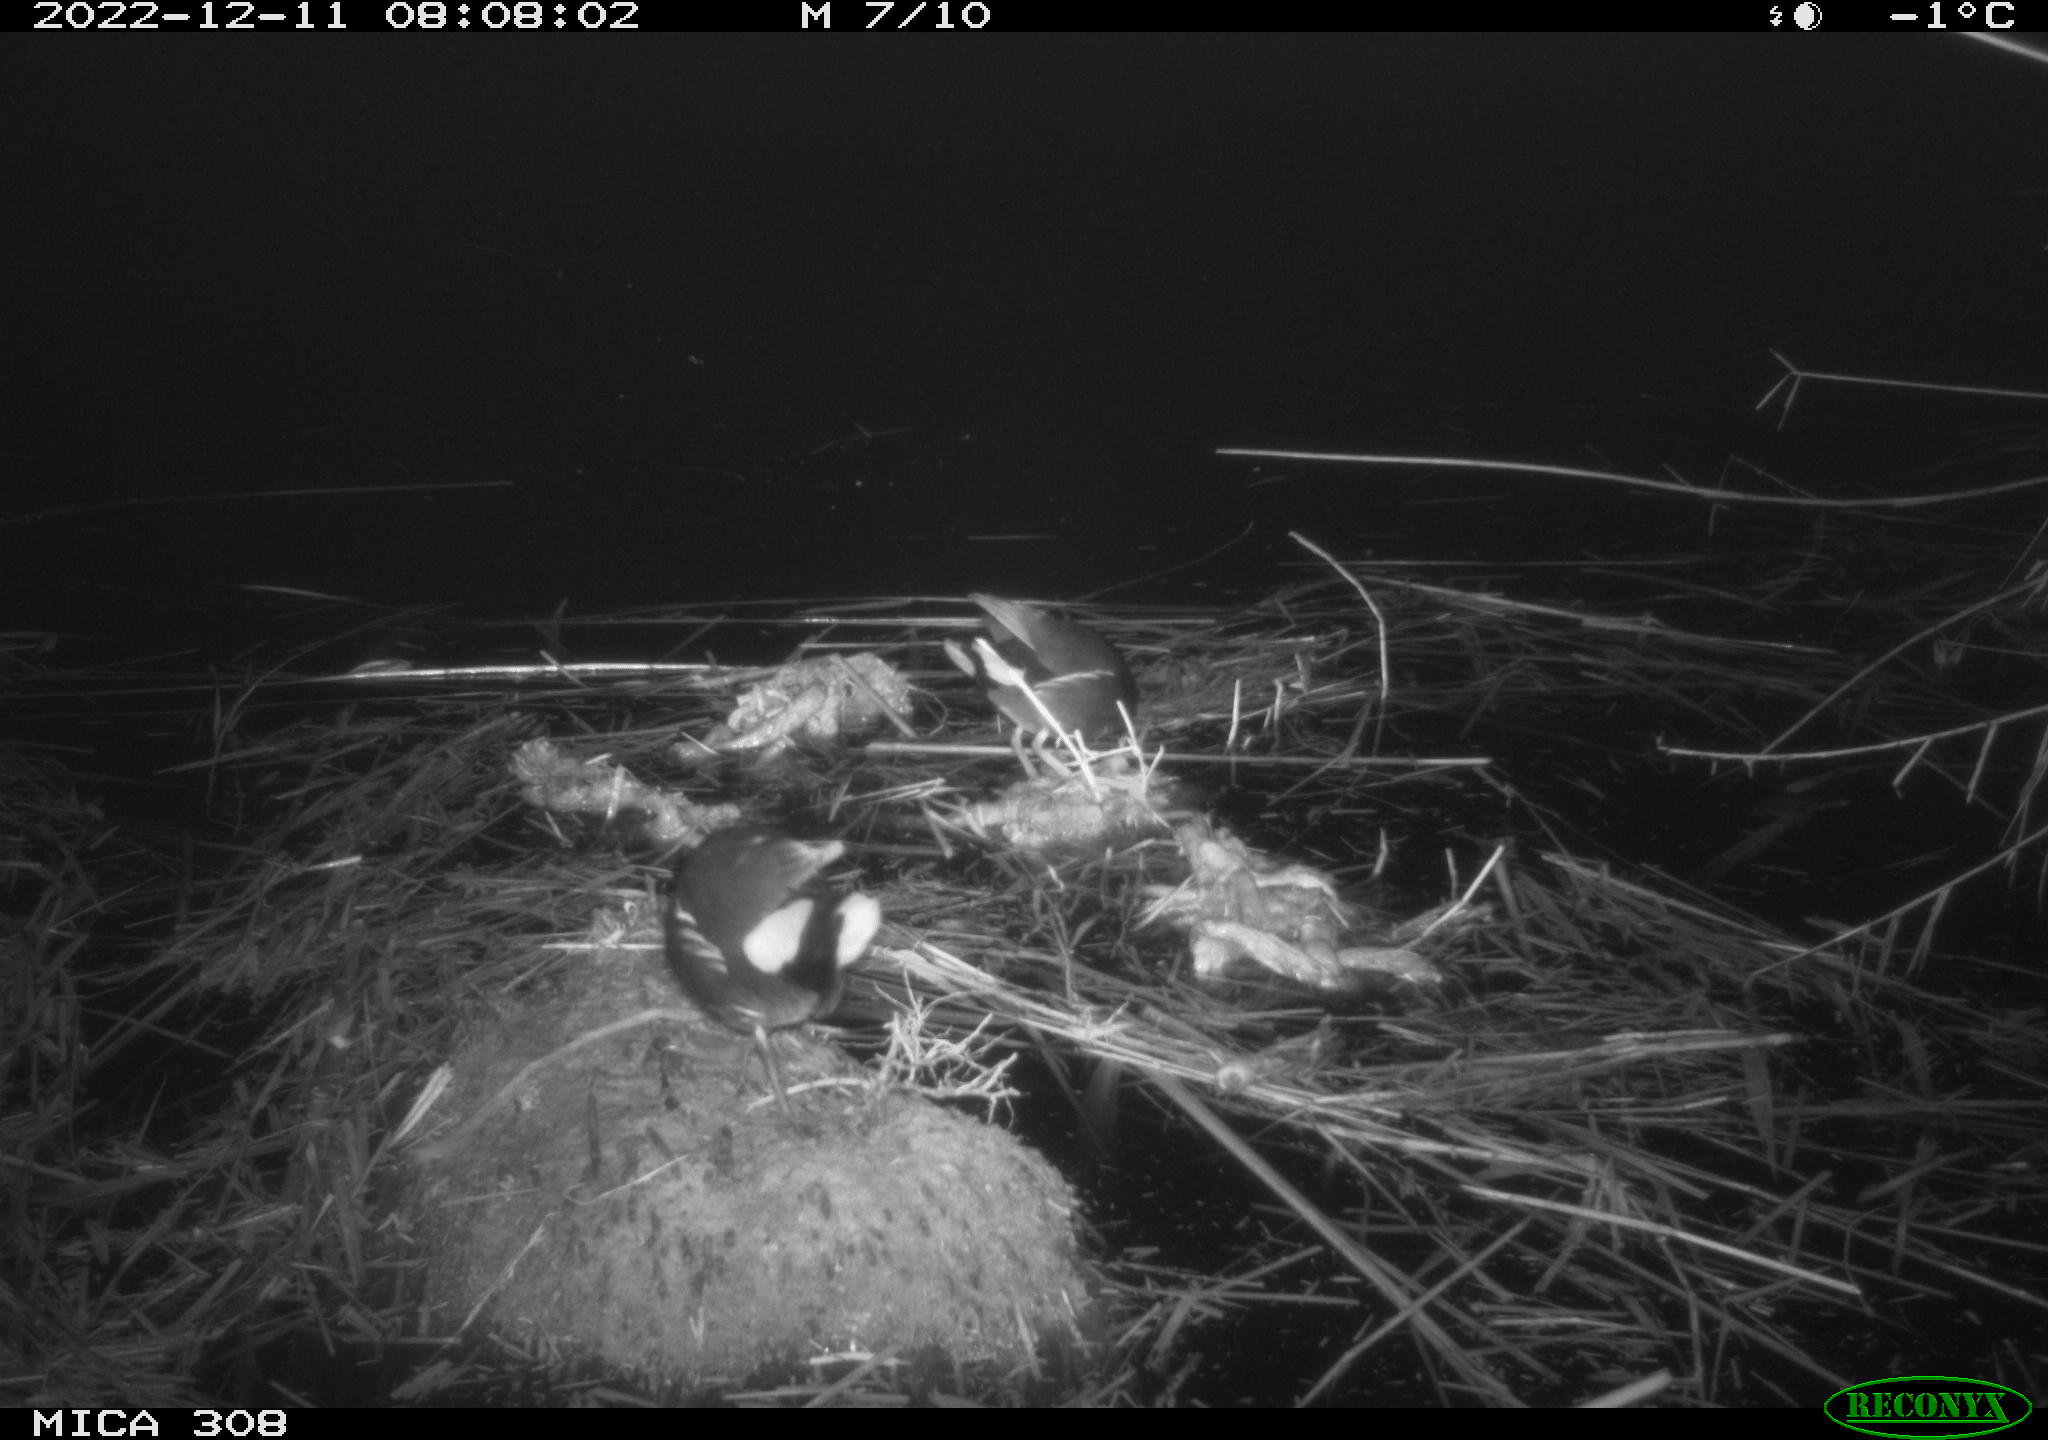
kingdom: Animalia
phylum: Chordata
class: Aves
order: Gruiformes
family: Rallidae
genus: Gallinula
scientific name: Gallinula chloropus
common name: Common moorhen
